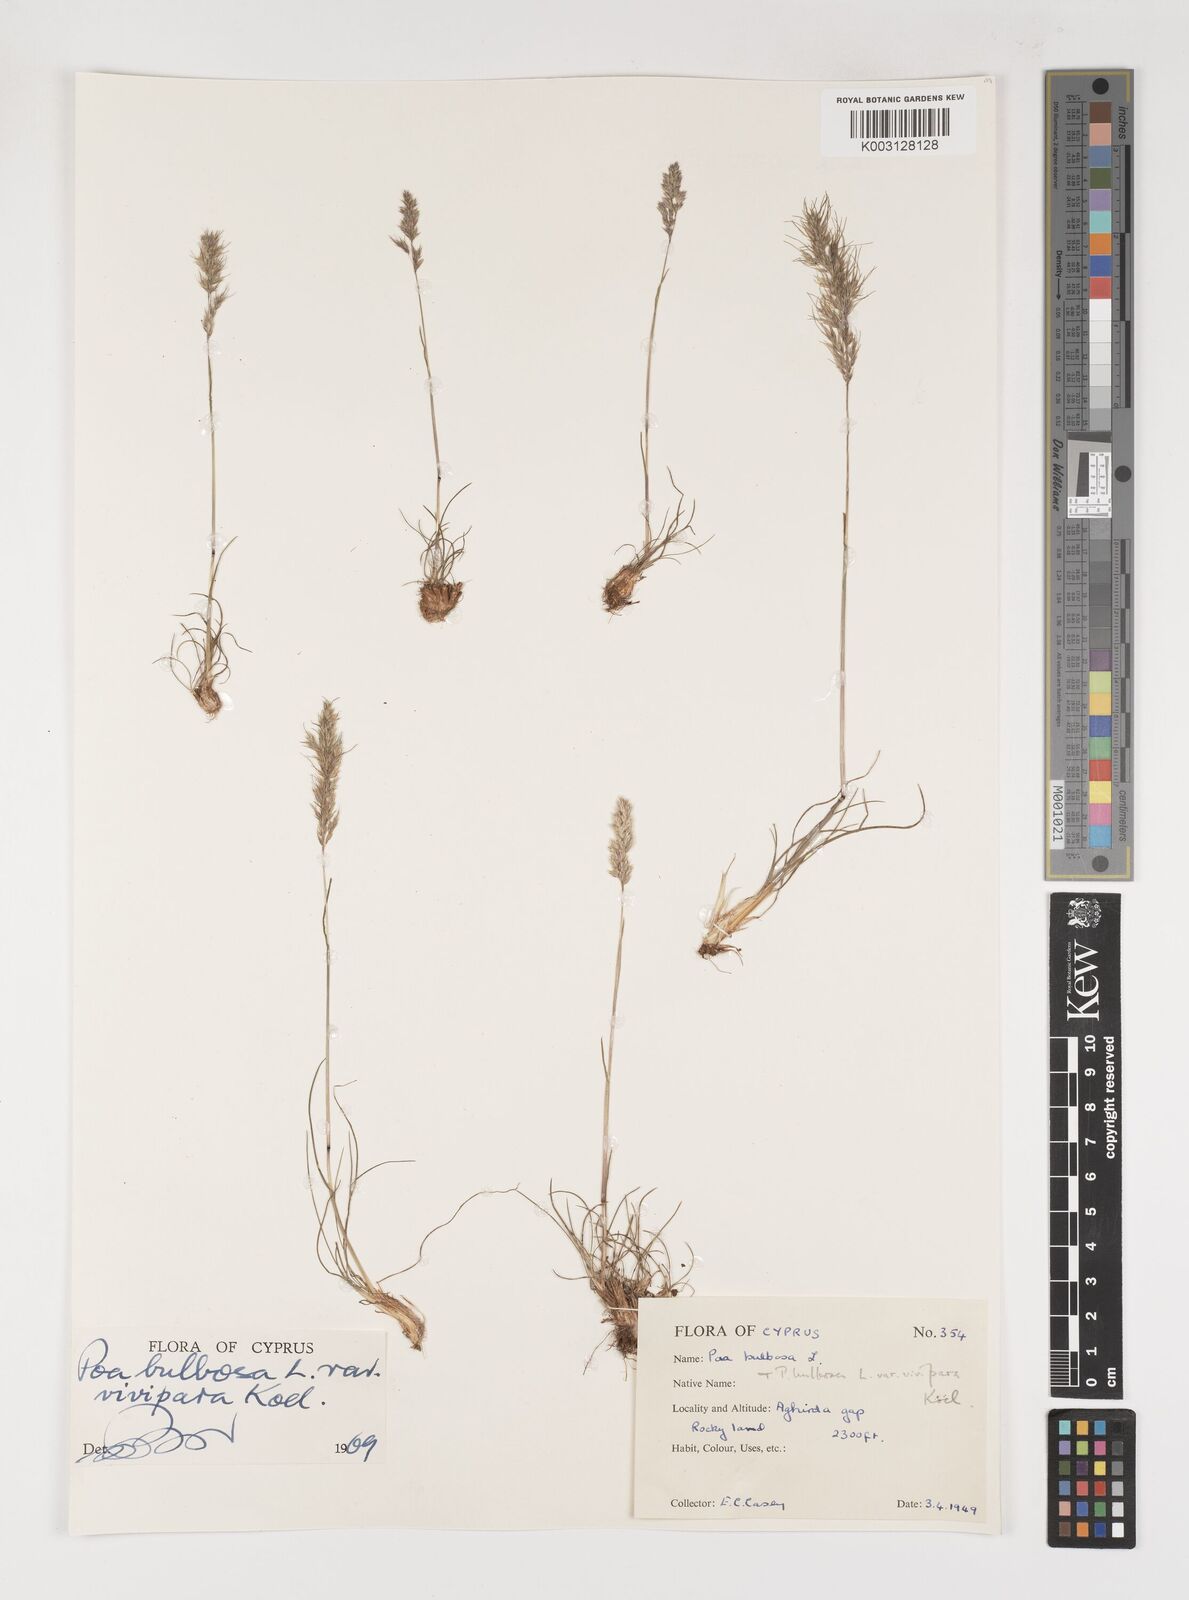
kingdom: Plantae
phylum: Tracheophyta
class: Liliopsida
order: Poales
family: Poaceae
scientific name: Poaceae
